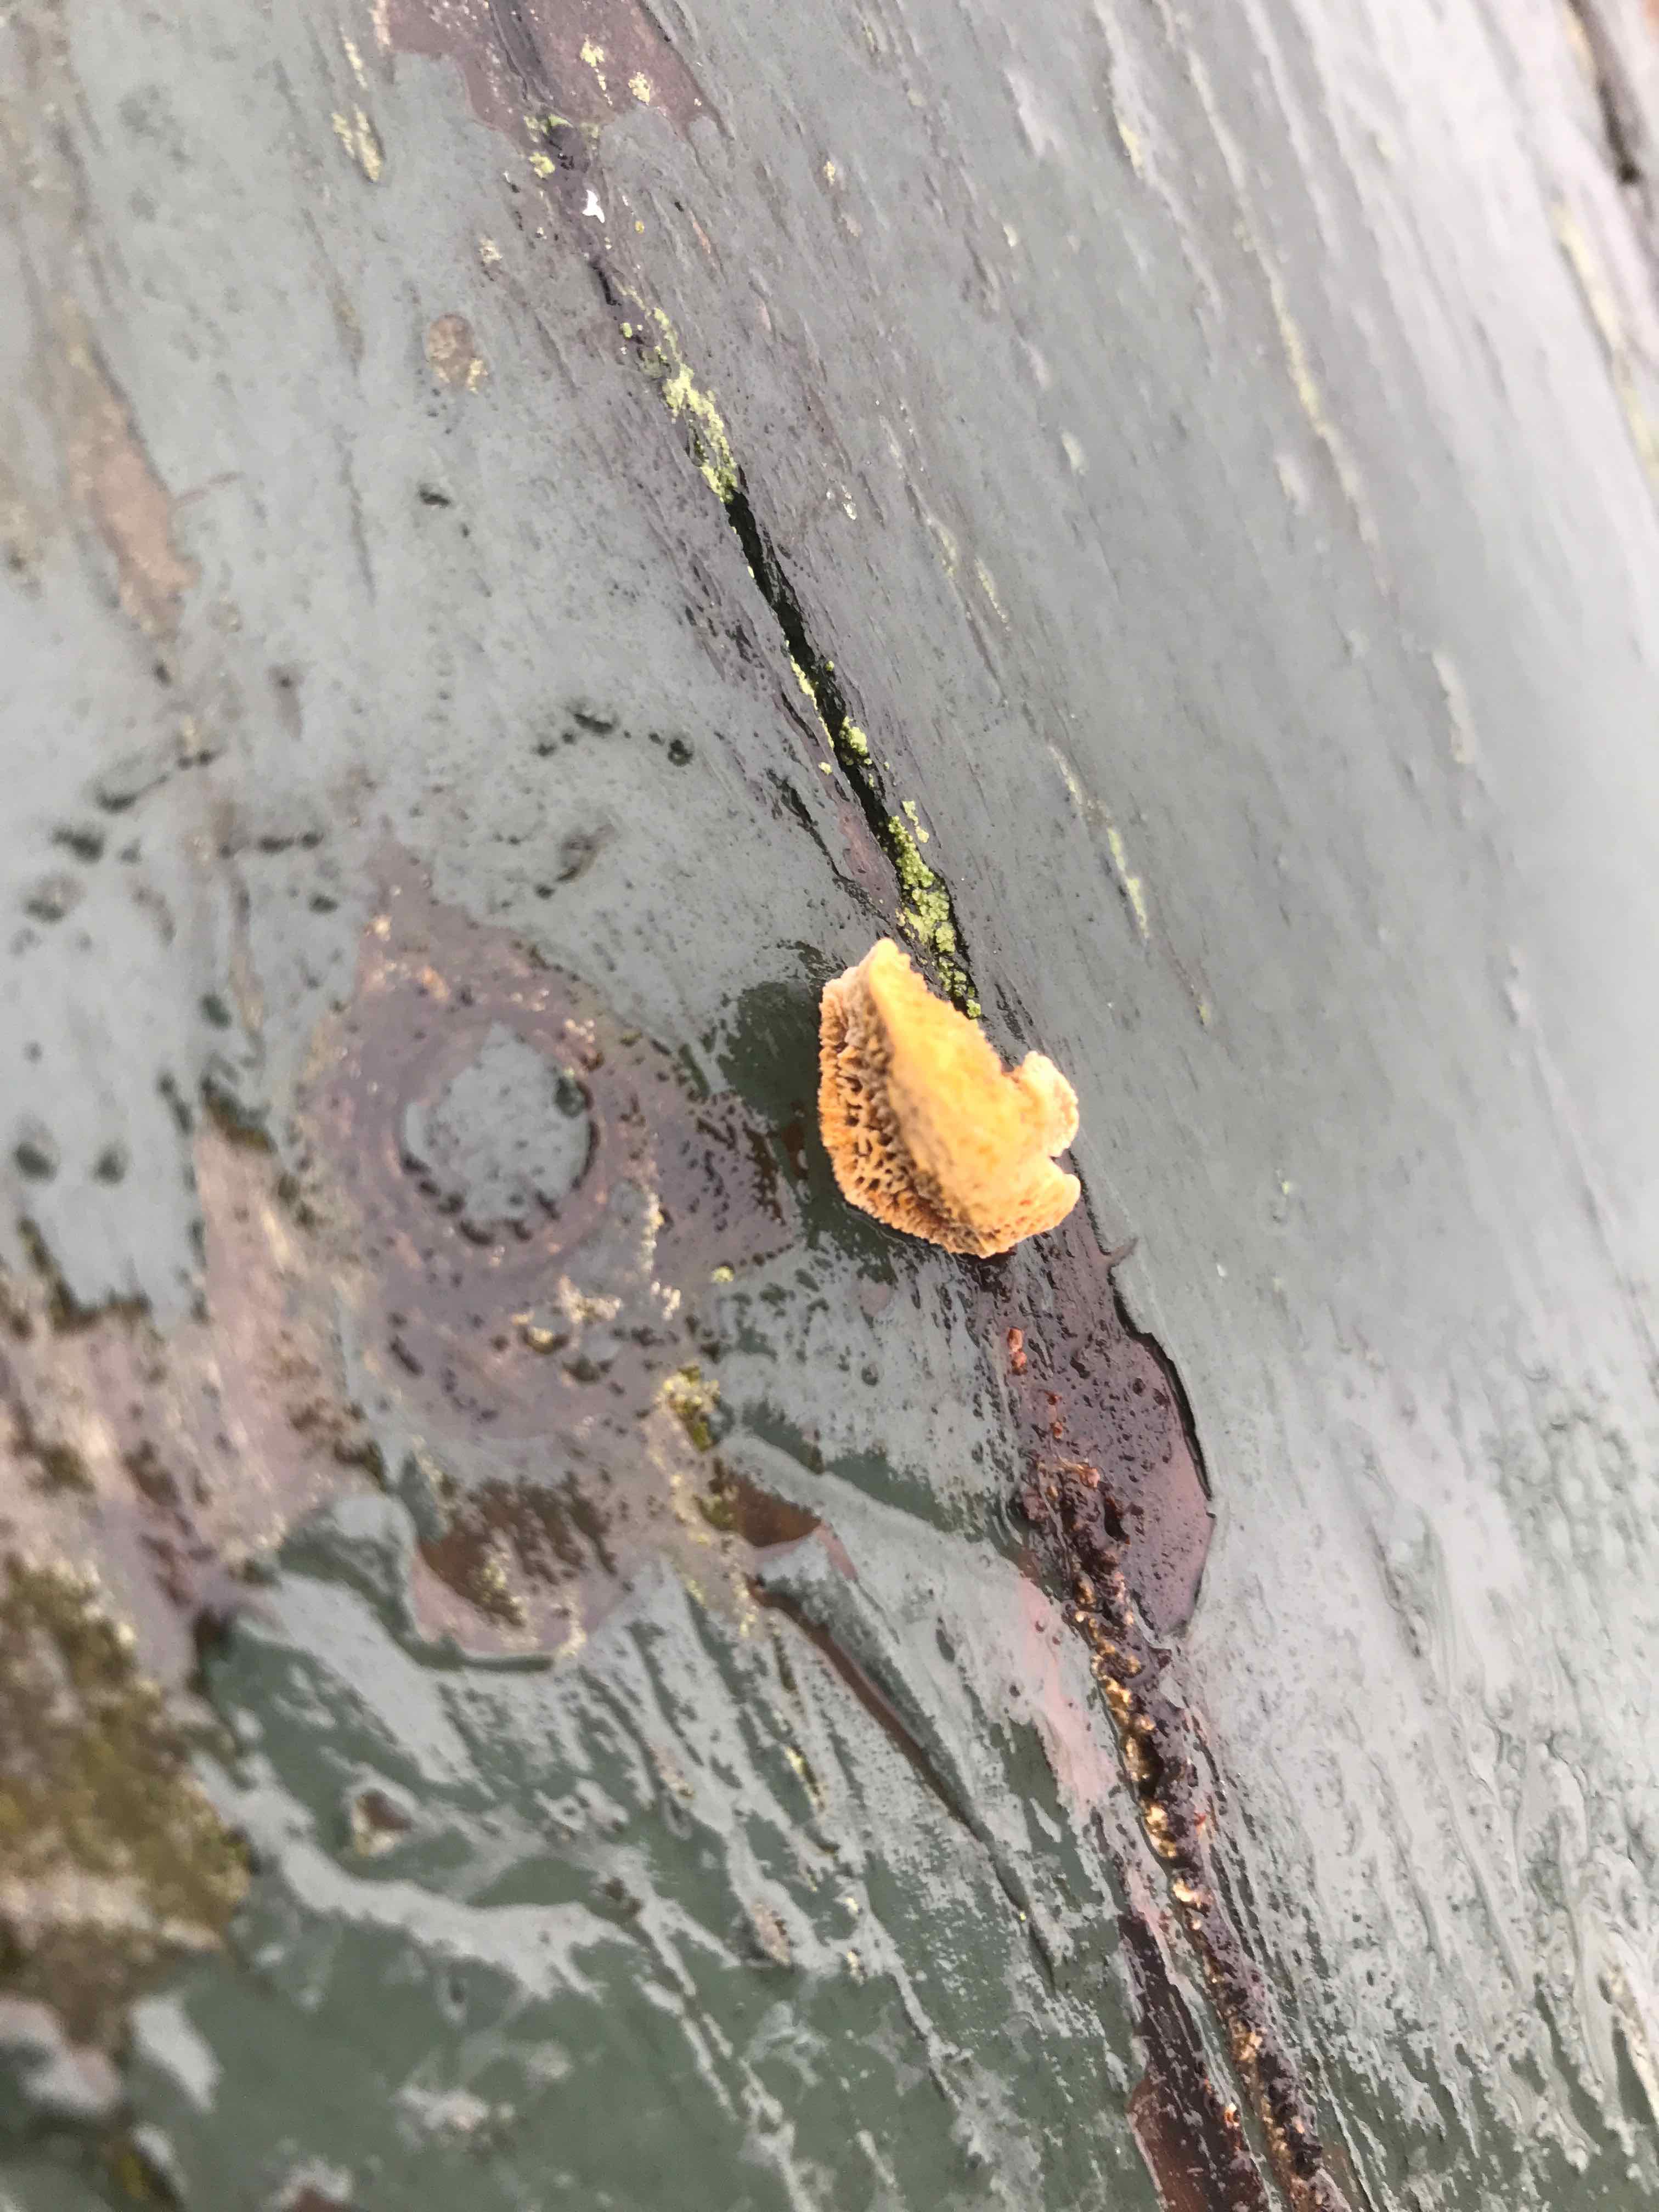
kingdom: Fungi
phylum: Basidiomycota
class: Agaricomycetes
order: Hymenochaetales
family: Hymenochaetaceae
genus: Fuscoporia
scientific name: Fuscoporia ferrea
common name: skorpe-ildporesvamp
